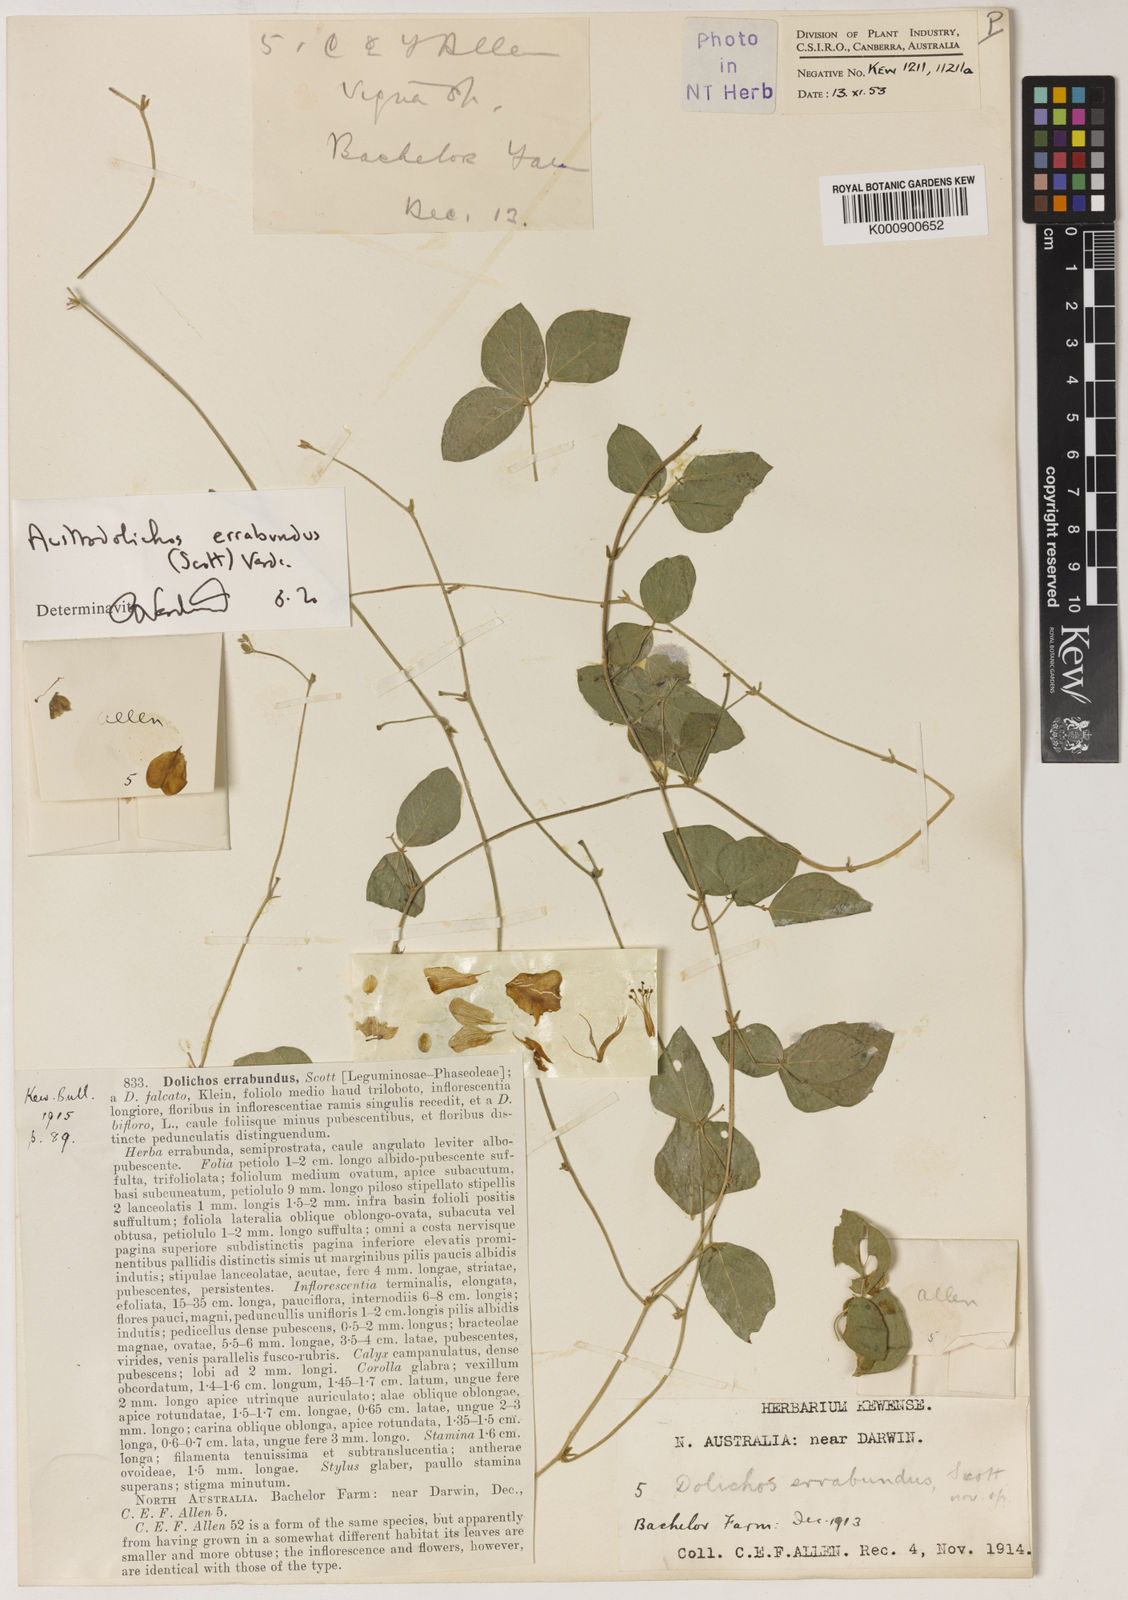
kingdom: Plantae
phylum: Tracheophyta
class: Magnoliopsida
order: Fabales
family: Fabaceae
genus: Austrodolichos
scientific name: Austrodolichos errabundus
